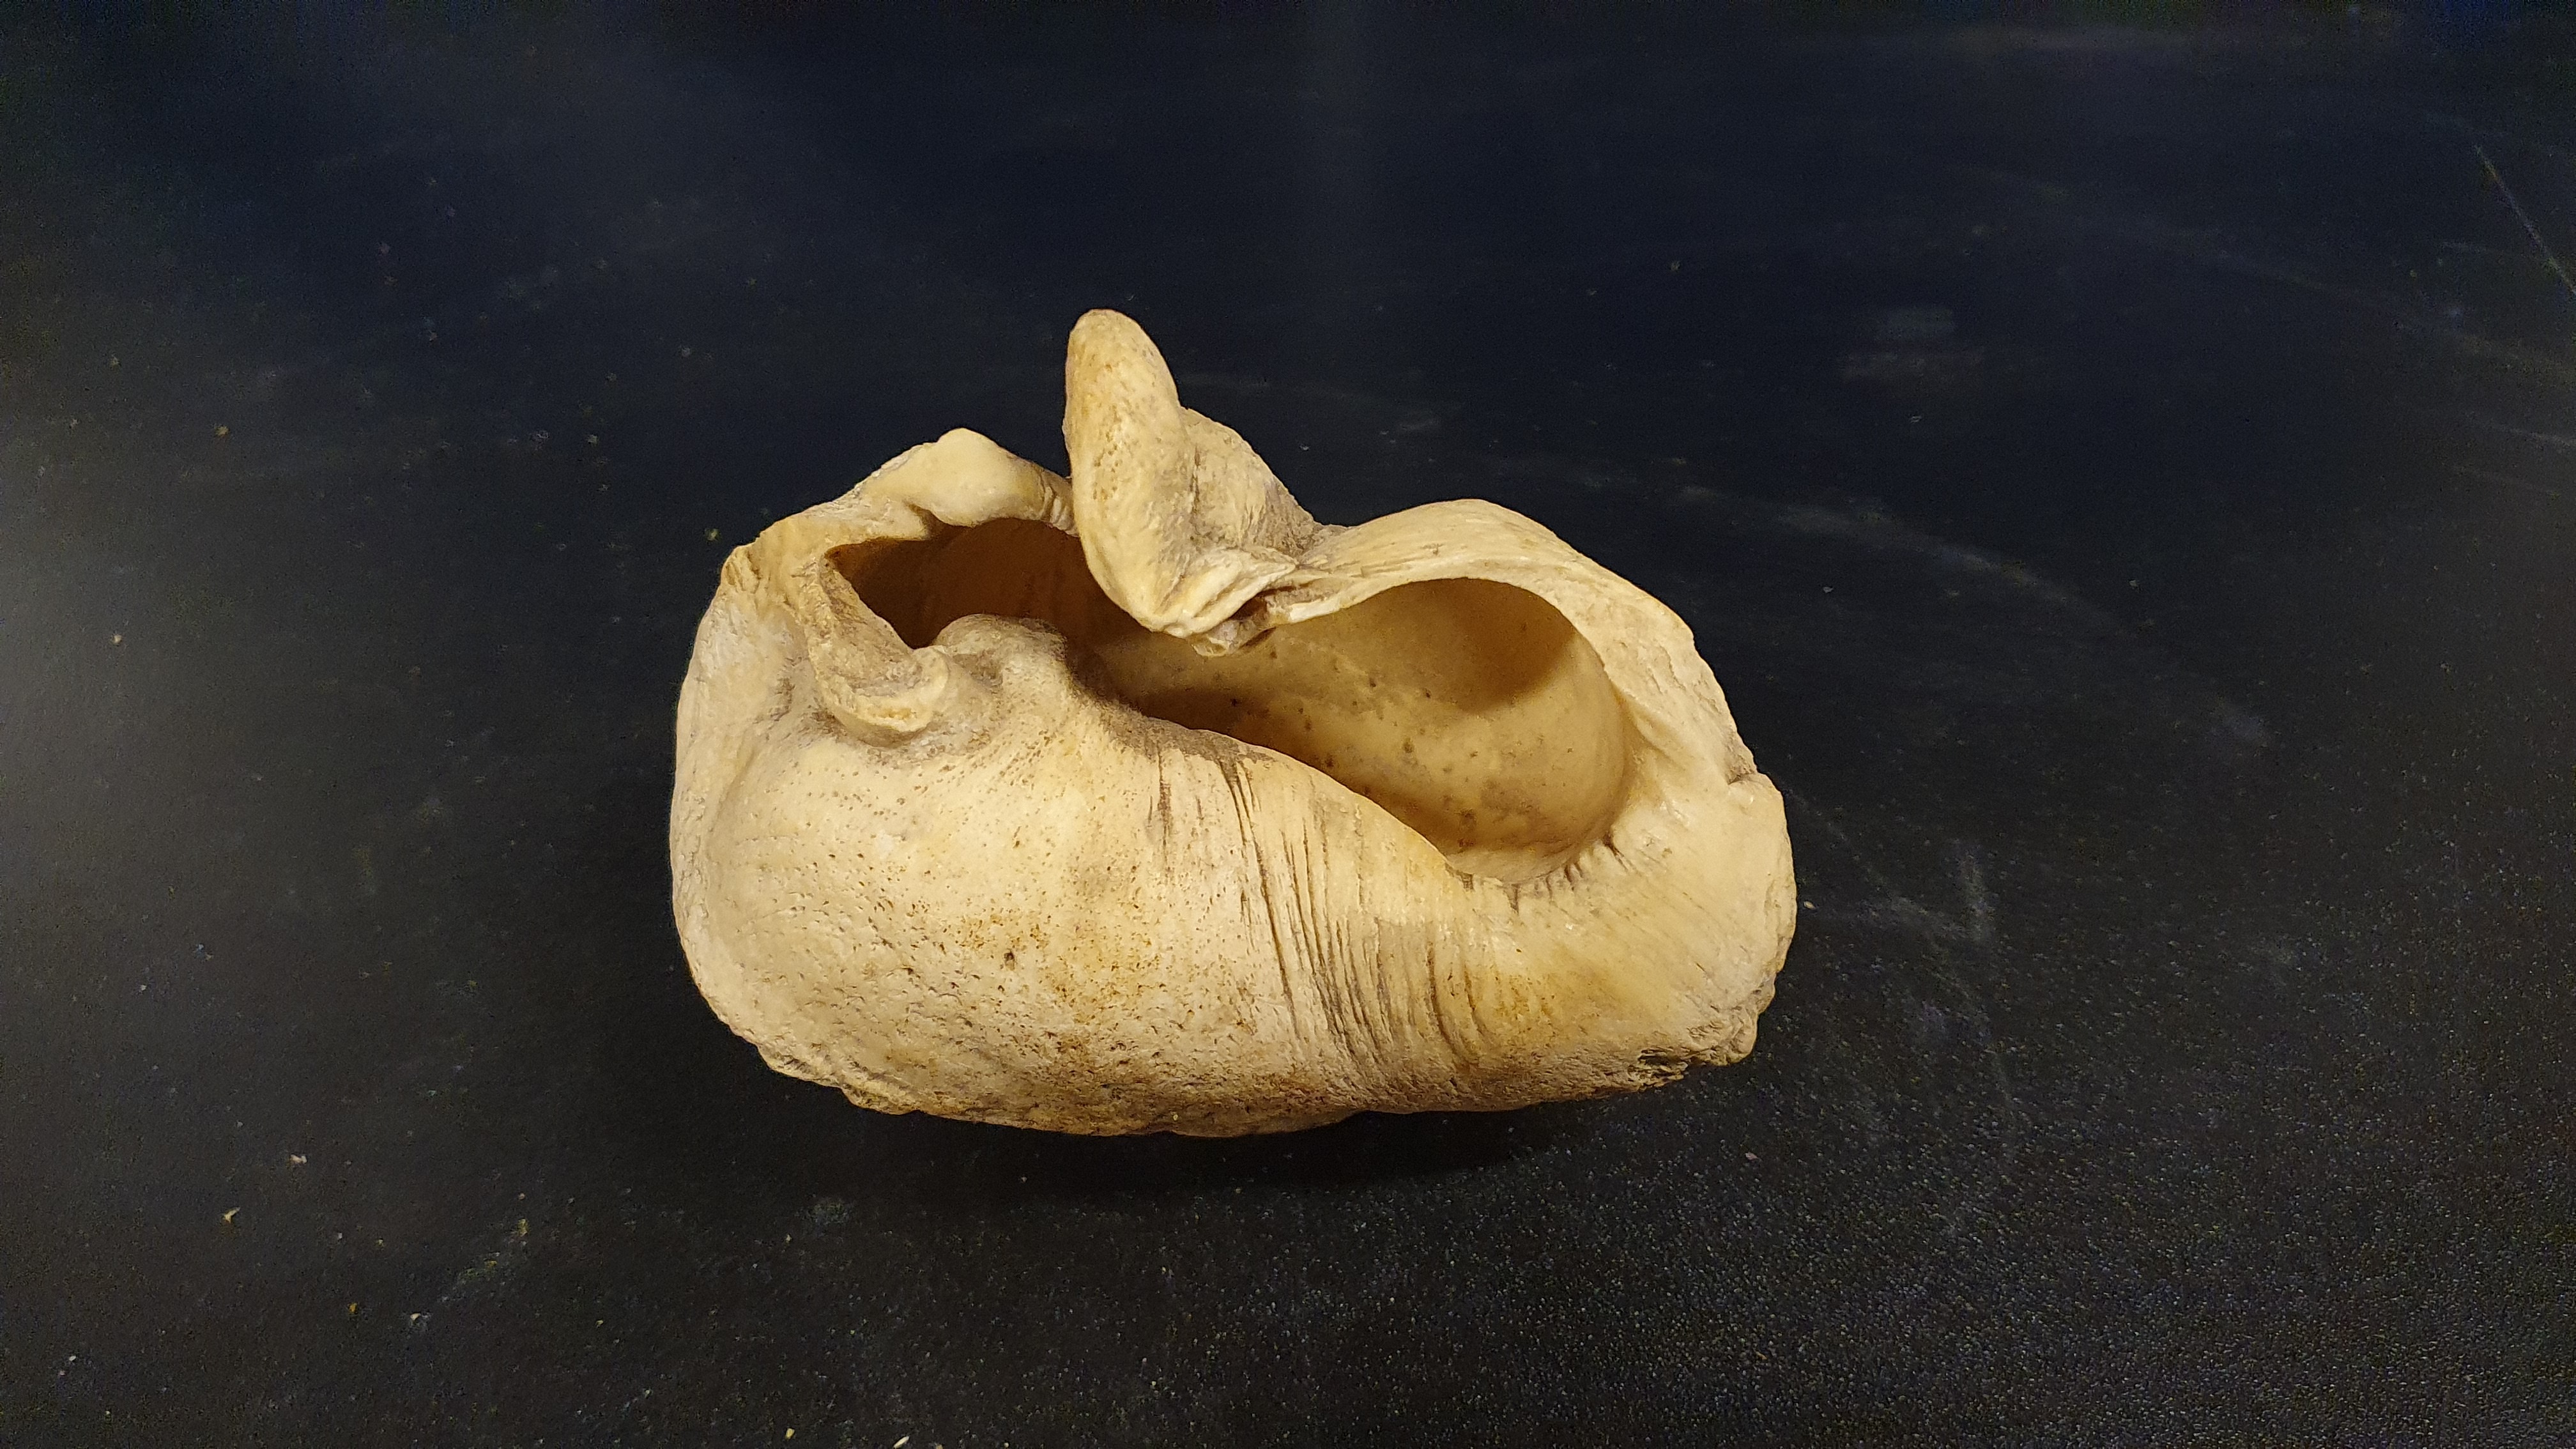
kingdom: Animalia
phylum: Chordata
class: Mammalia
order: Cetacea
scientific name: Cetacea
